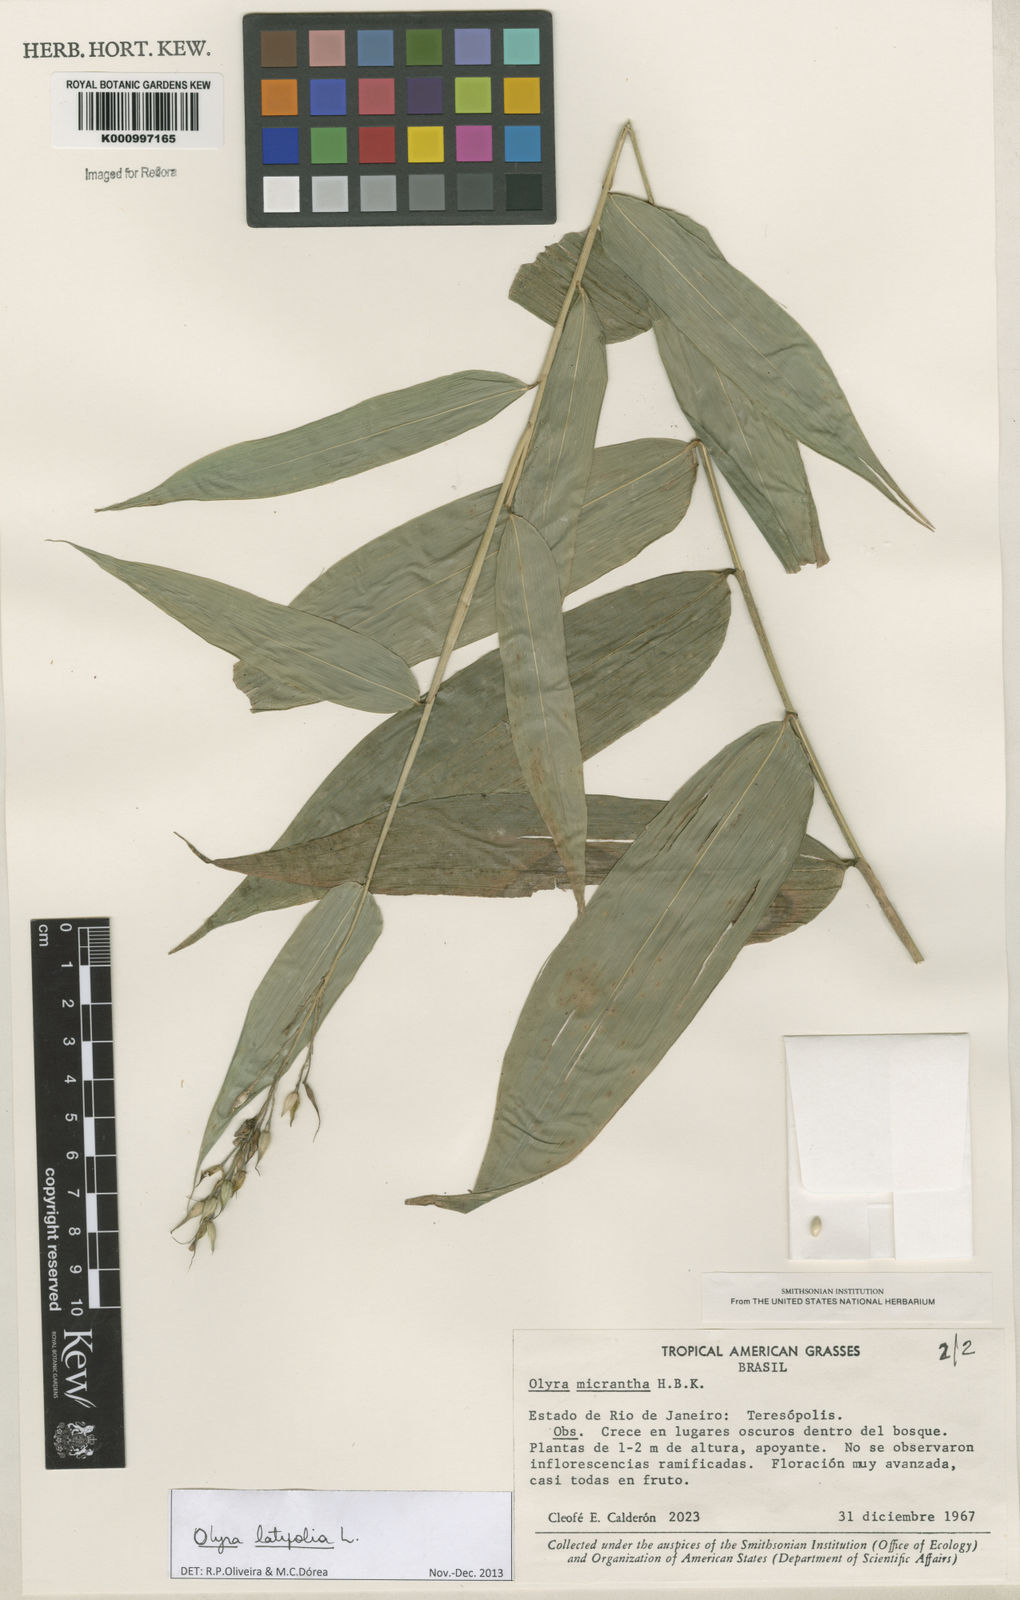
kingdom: Plantae
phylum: Tracheophyta
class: Liliopsida
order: Poales
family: Poaceae
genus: Olyra
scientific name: Olyra latifolia
